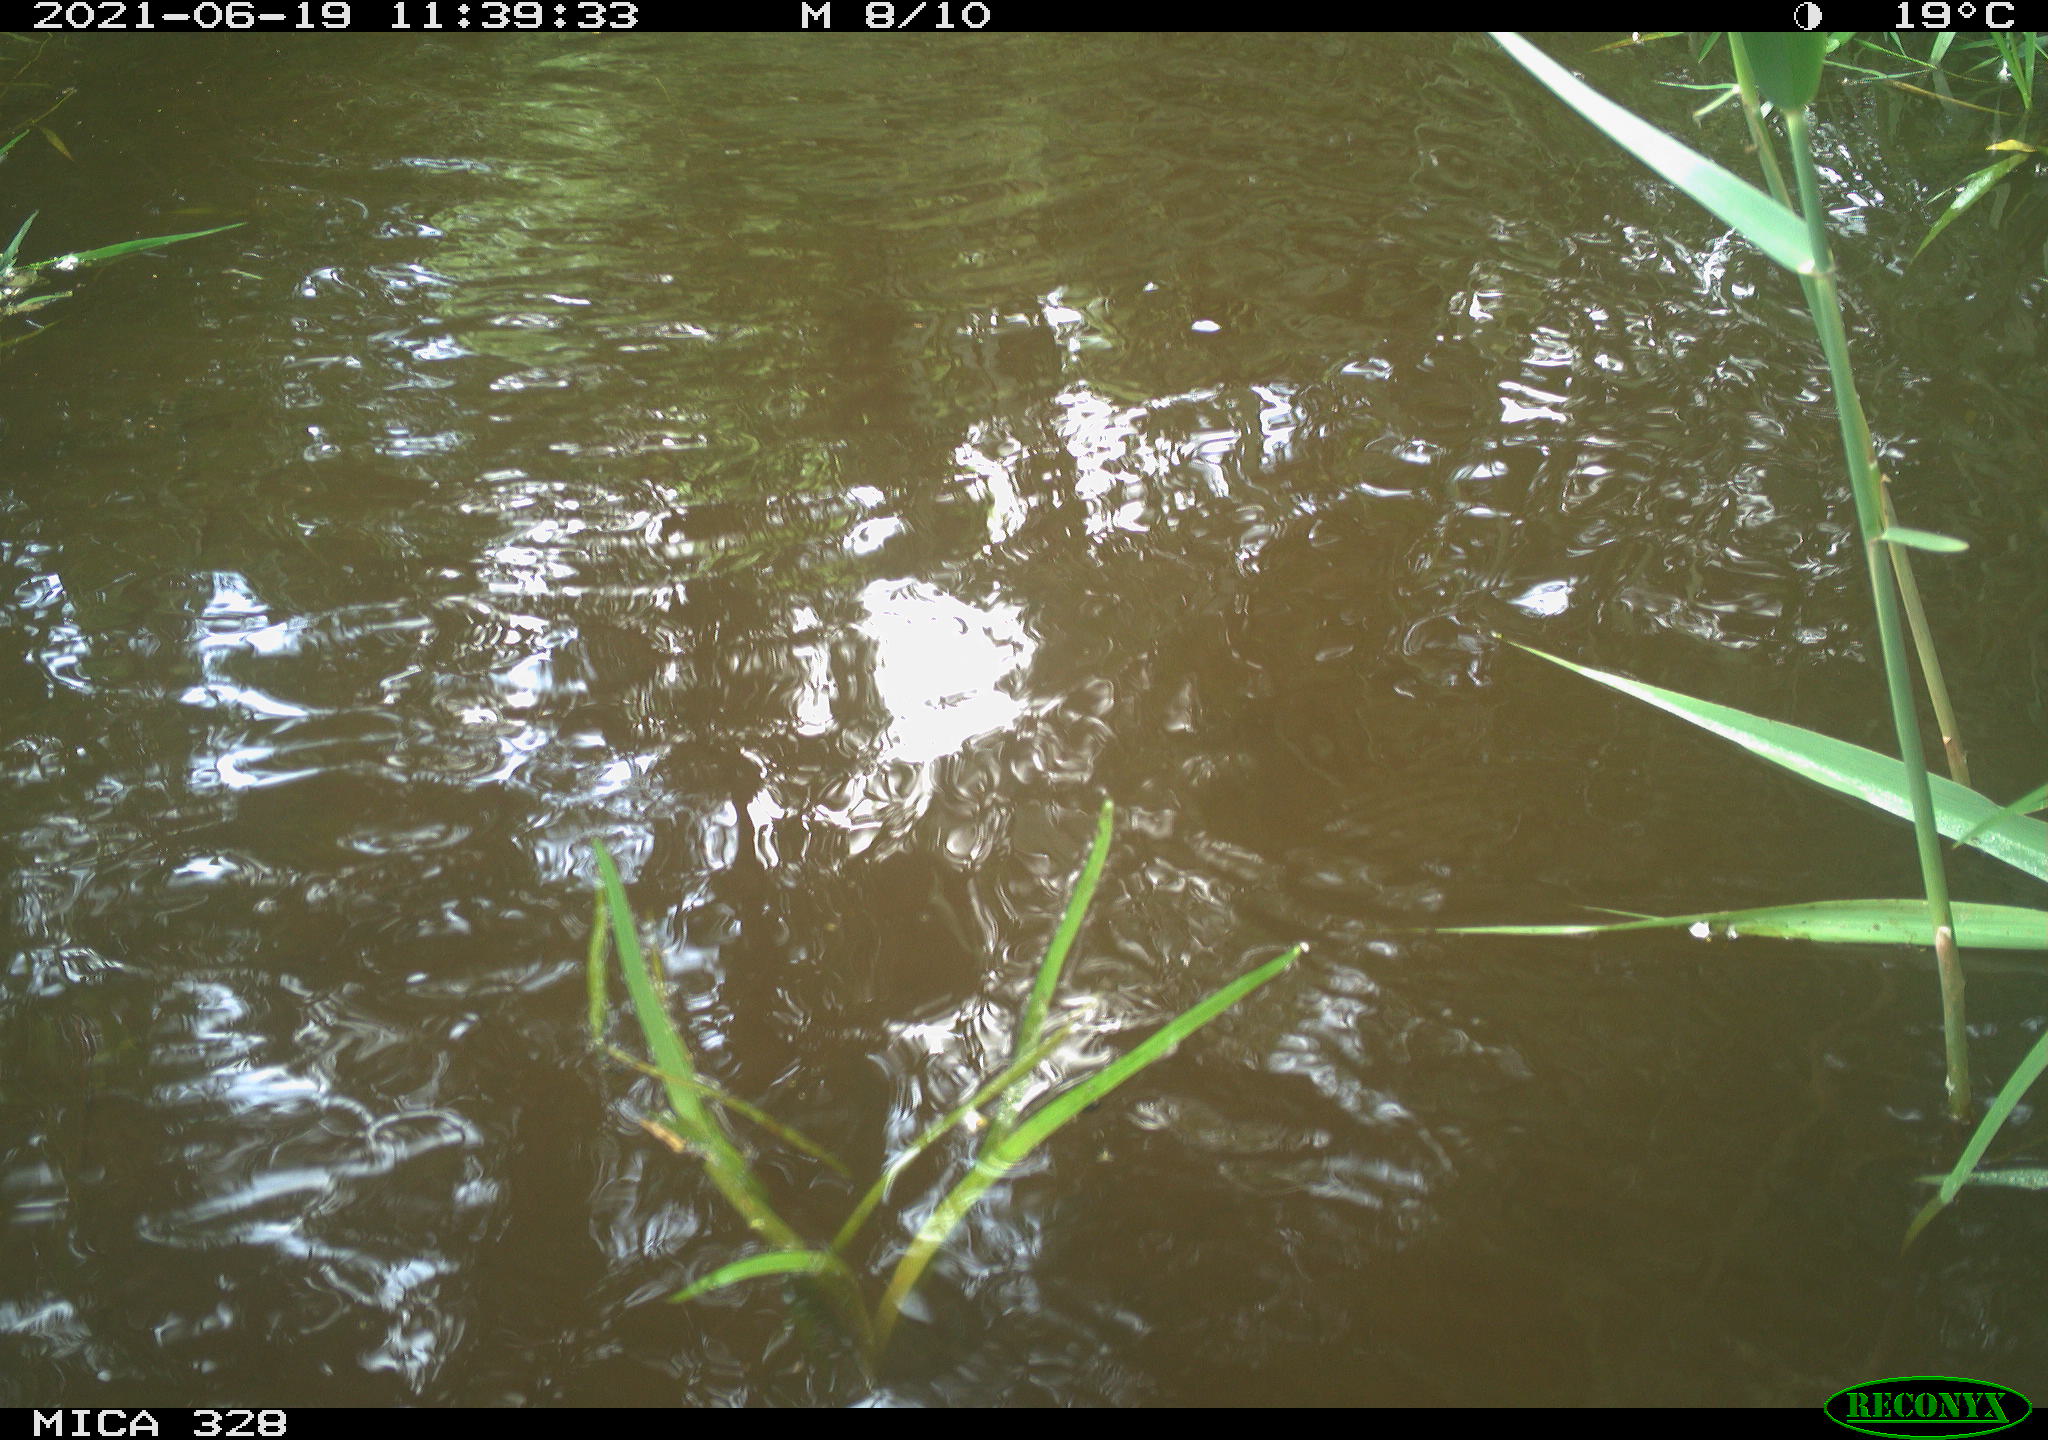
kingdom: Animalia
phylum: Chordata
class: Mammalia
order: Rodentia
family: Cricetidae
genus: Ondatra
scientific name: Ondatra zibethicus
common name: Muskrat
